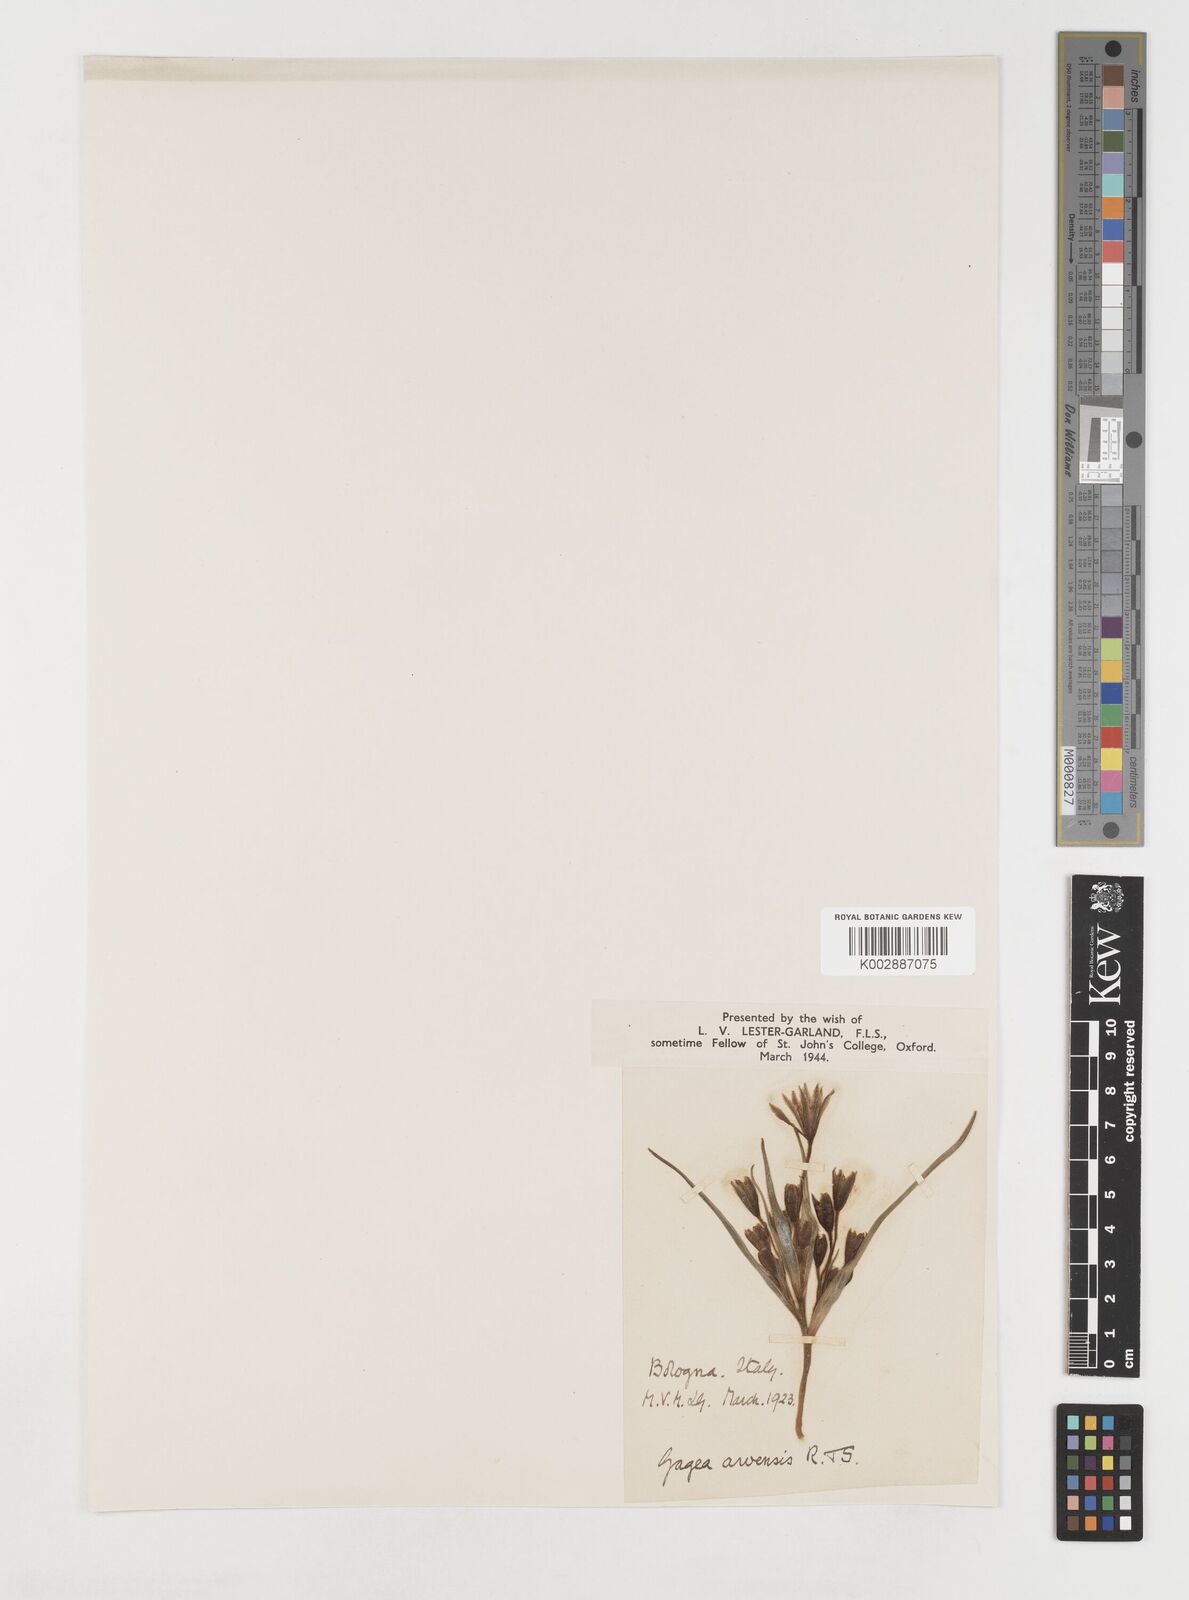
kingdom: Plantae
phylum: Tracheophyta
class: Liliopsida
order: Liliales
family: Liliaceae
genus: Gagea
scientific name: Gagea minima
